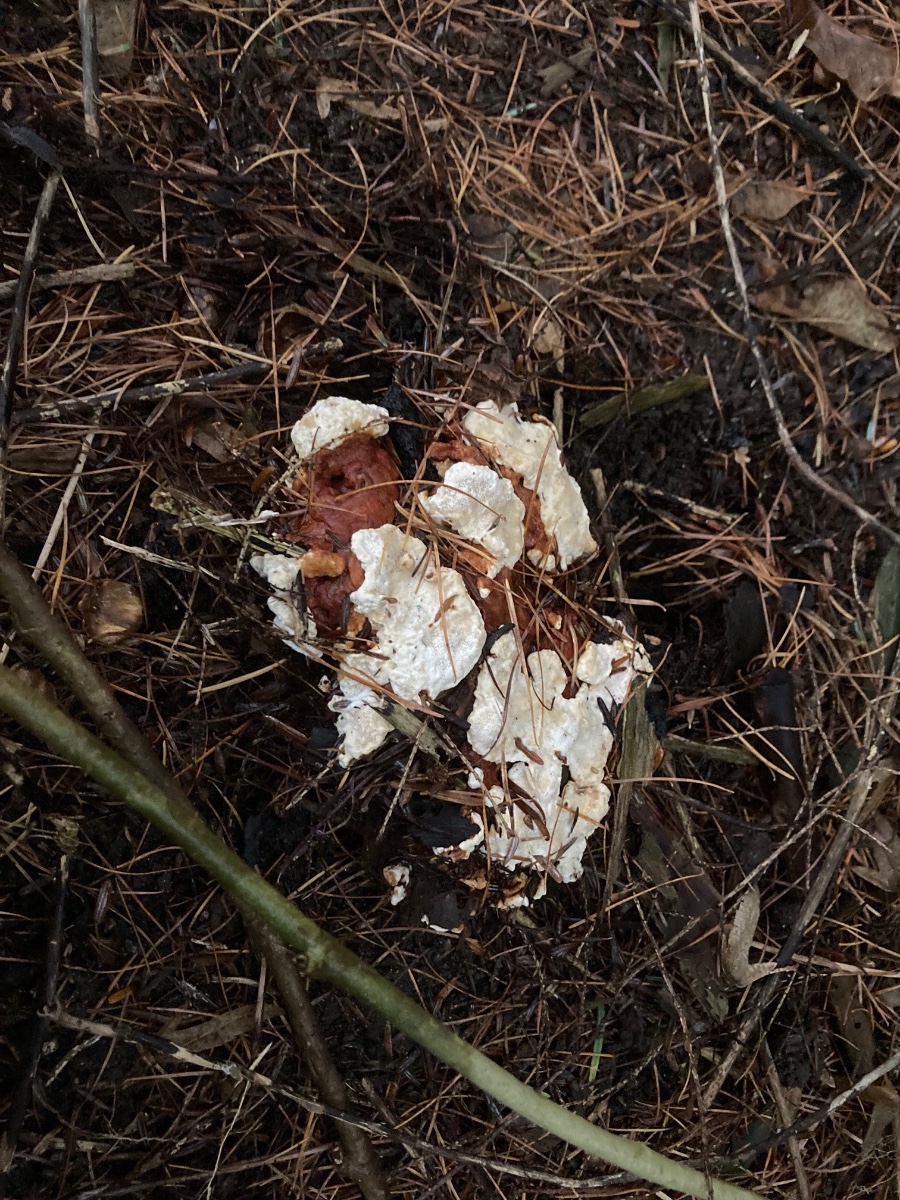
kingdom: Fungi
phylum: Basidiomycota
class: Agaricomycetes
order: Russulales
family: Bondarzewiaceae
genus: Heterobasidion
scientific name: Heterobasidion annosum
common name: almindelig rodfordærver
